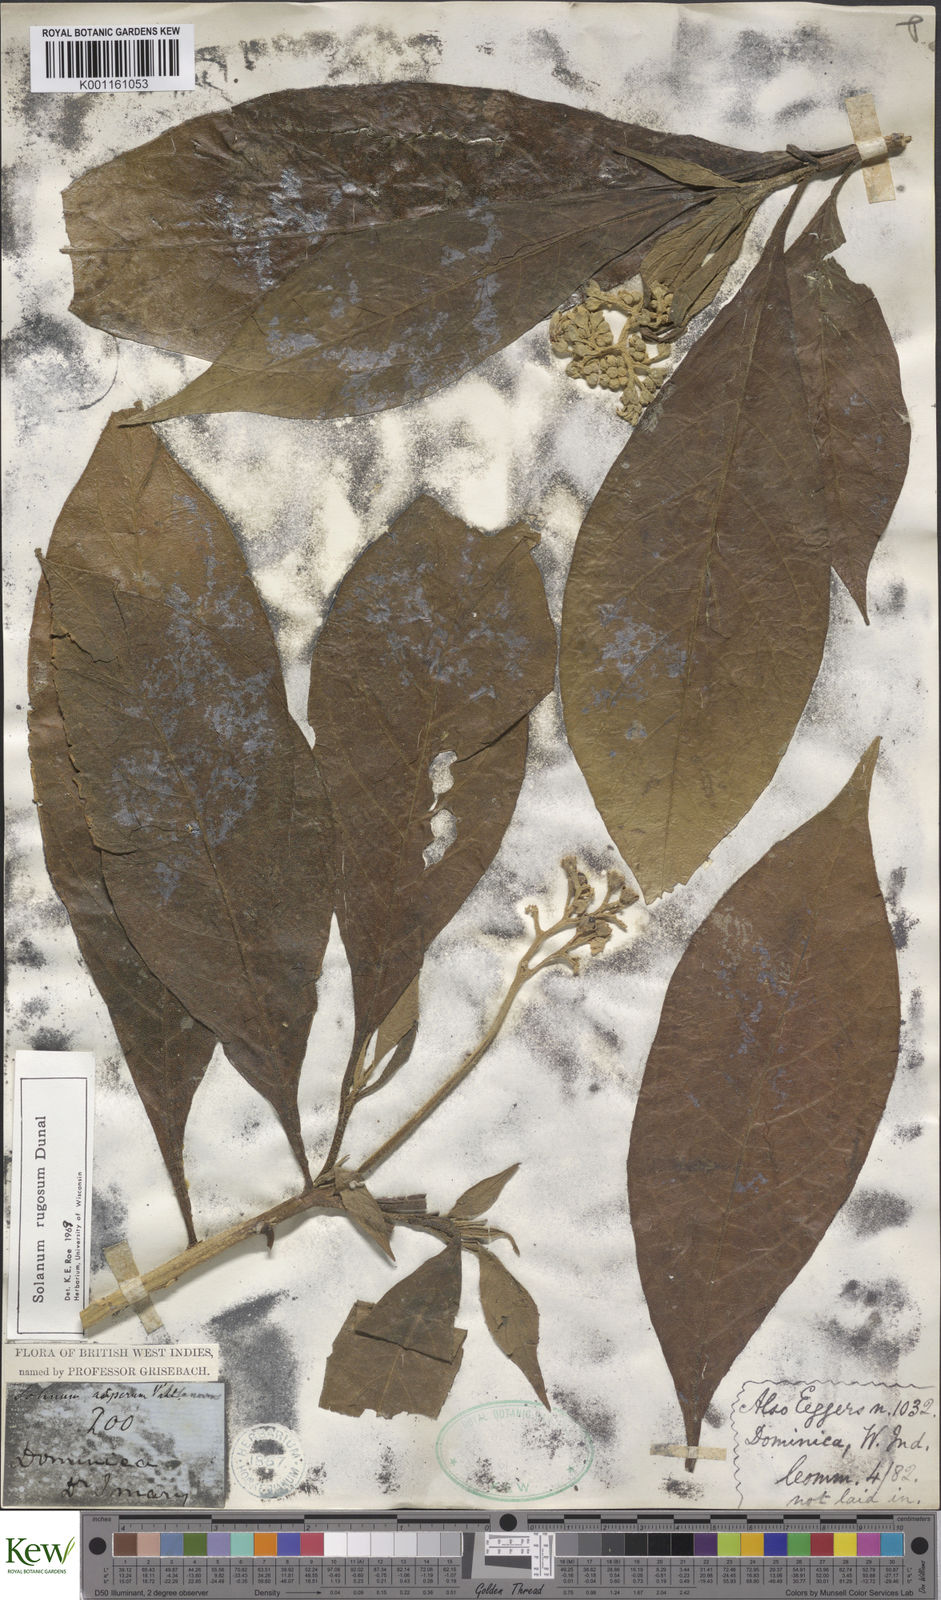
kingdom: Plantae
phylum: Tracheophyta
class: Magnoliopsida
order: Solanales
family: Solanaceae
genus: Solanum
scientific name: Solanum rugosum
